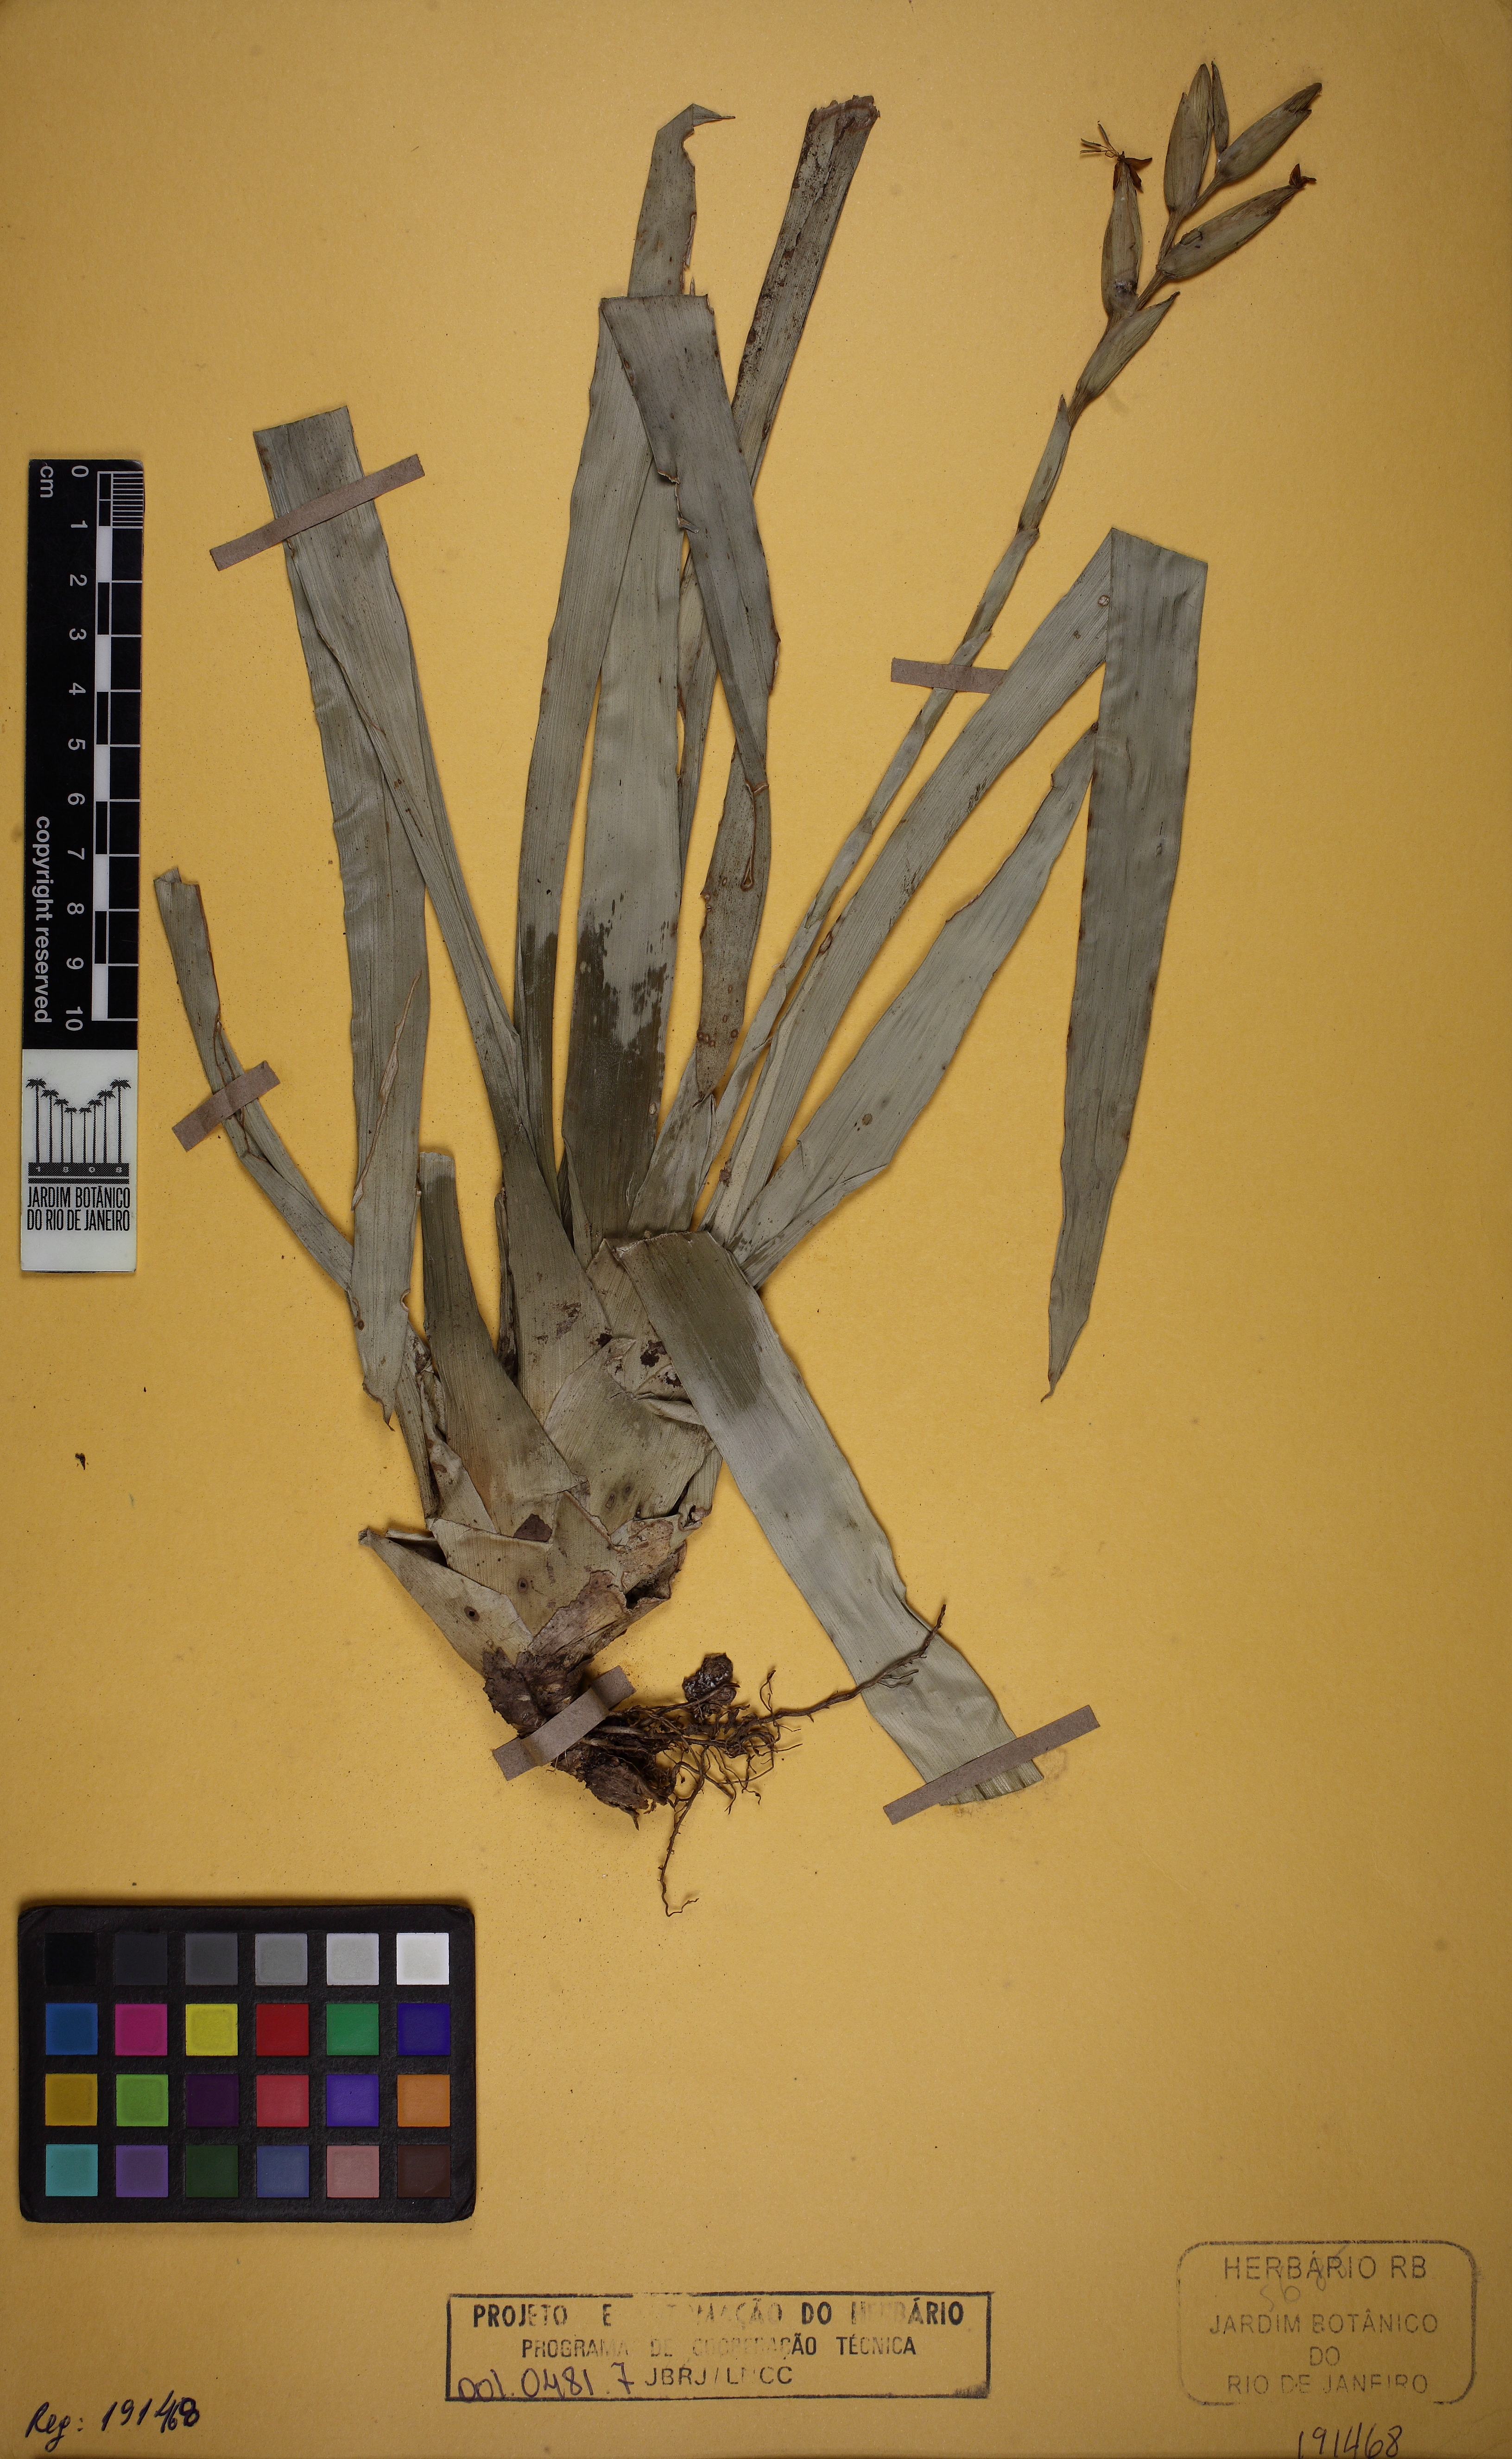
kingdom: Plantae
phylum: Tracheophyta
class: Liliopsida
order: Poales
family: Bromeliaceae
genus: Vriesea
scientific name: Vriesea pauperrima
